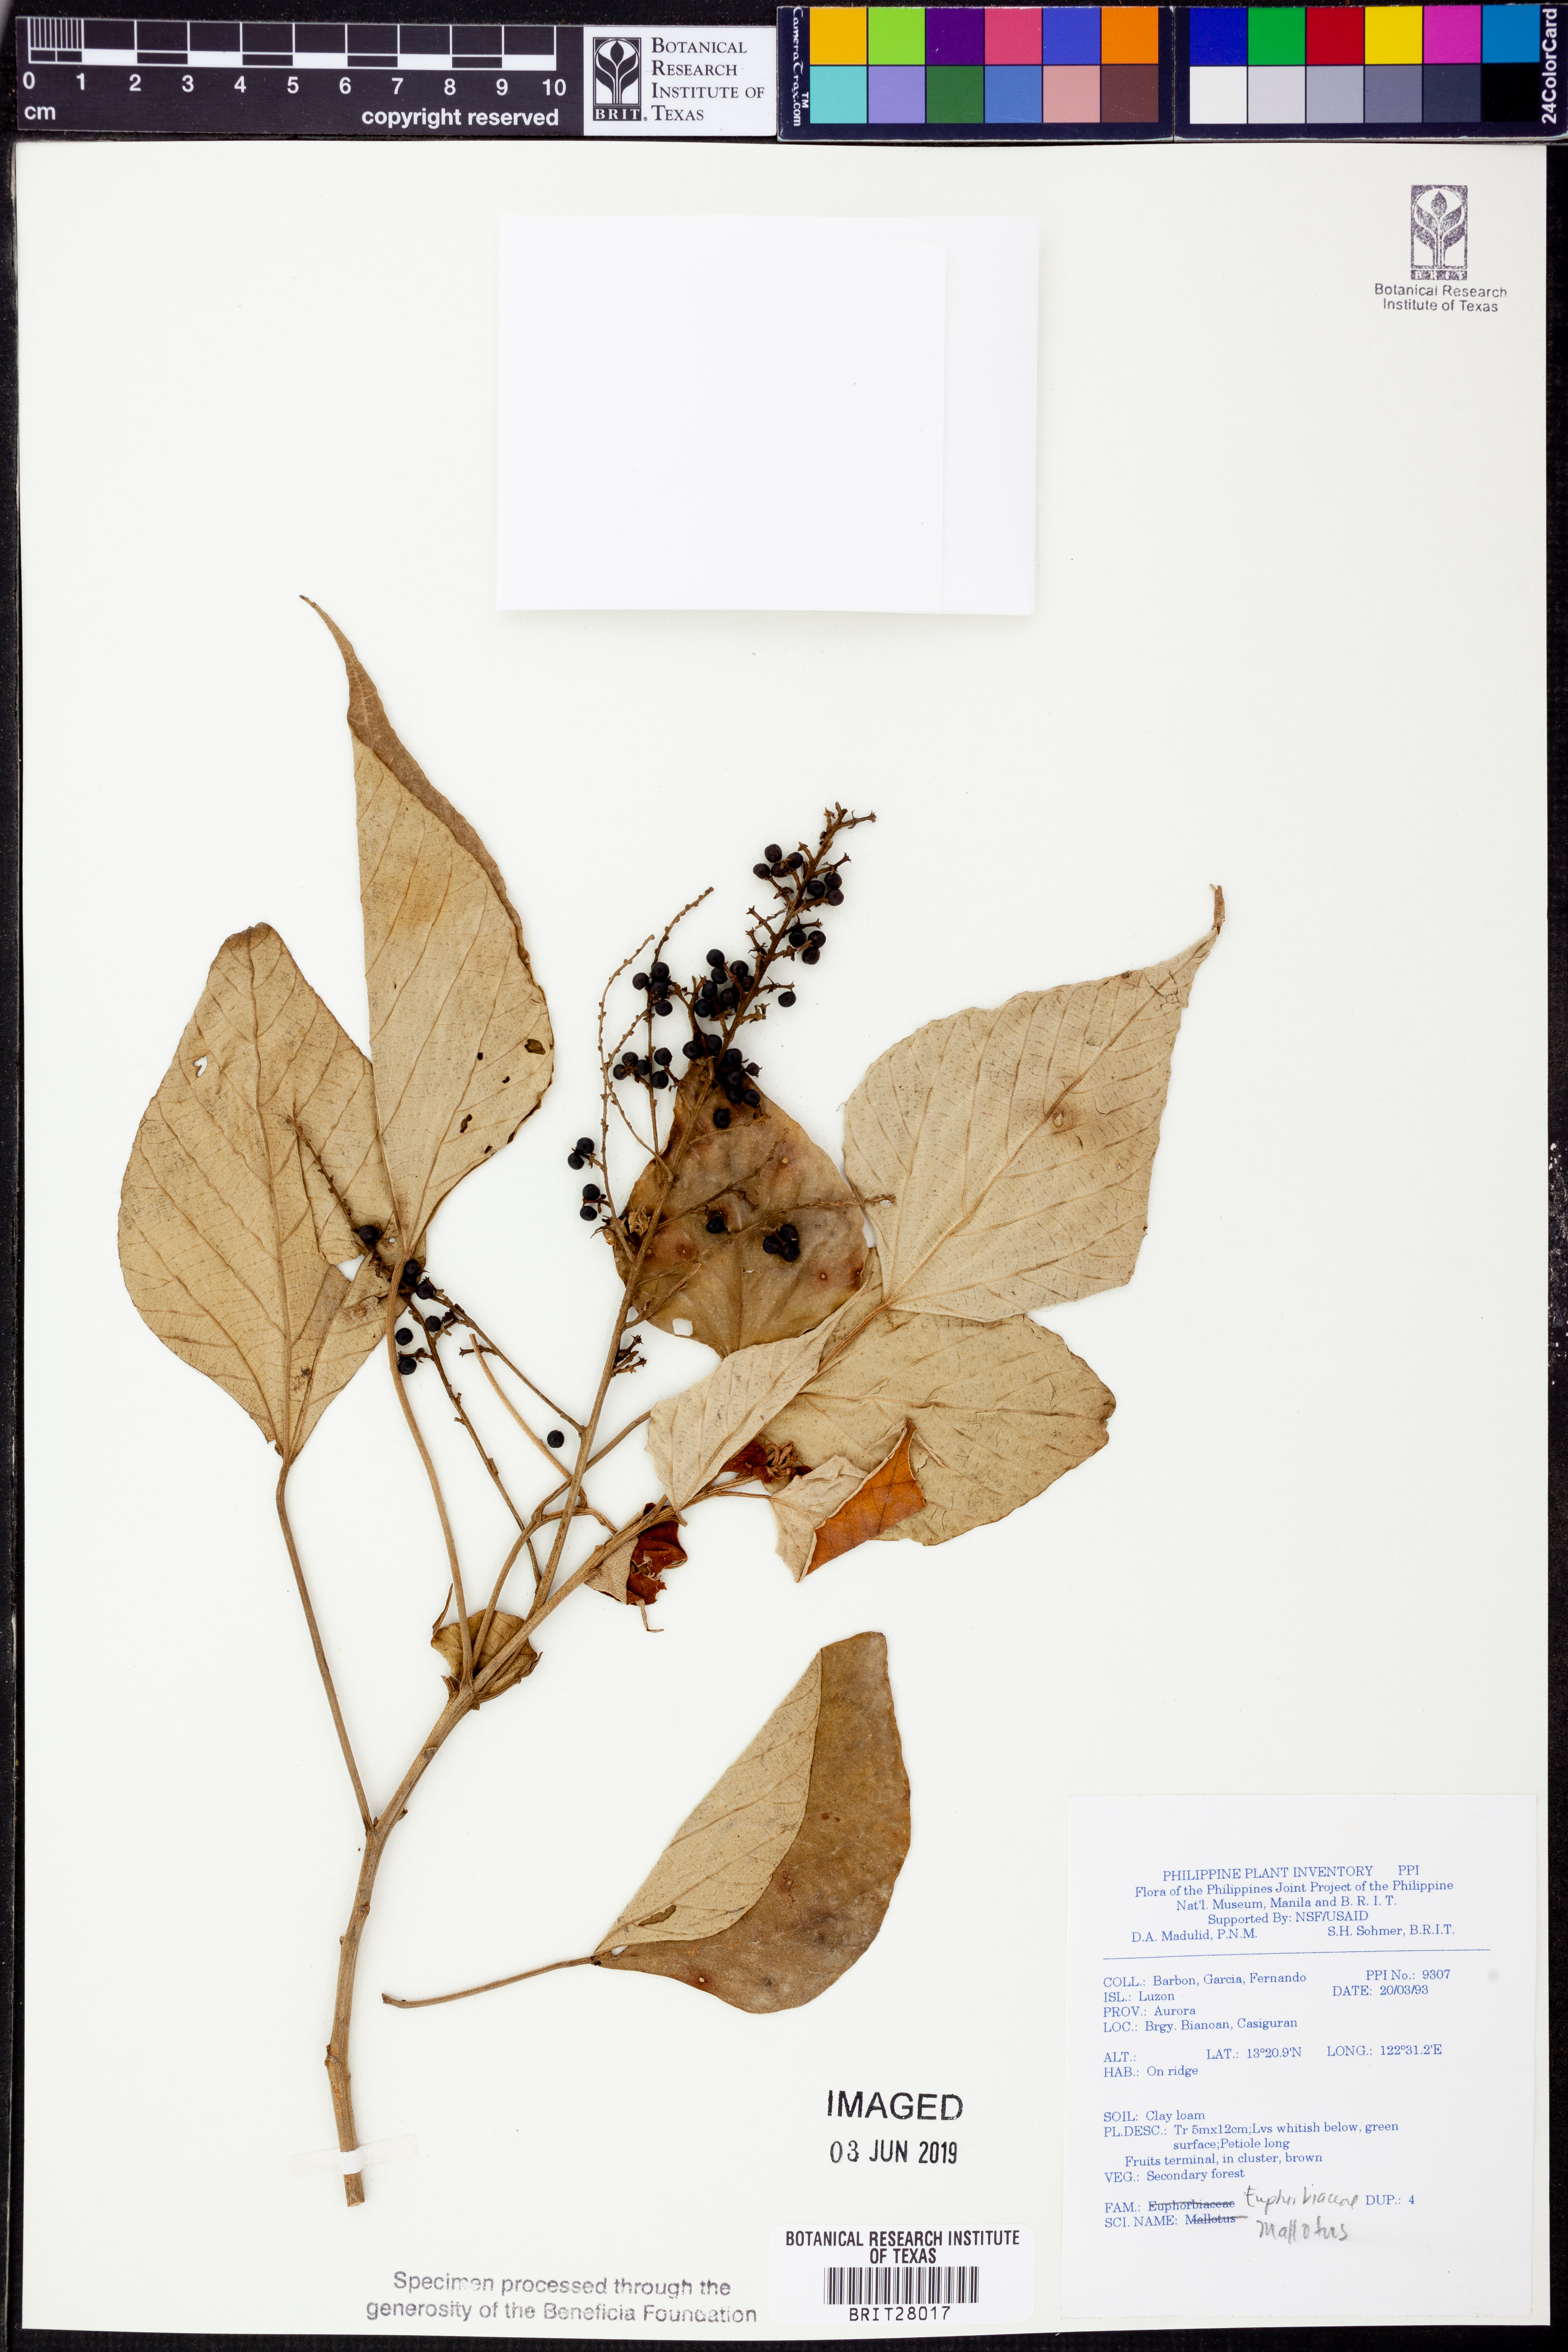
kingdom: Plantae
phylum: Tracheophyta
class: Magnoliopsida
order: Malpighiales
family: Euphorbiaceae
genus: Mallotus
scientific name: Mallotus
